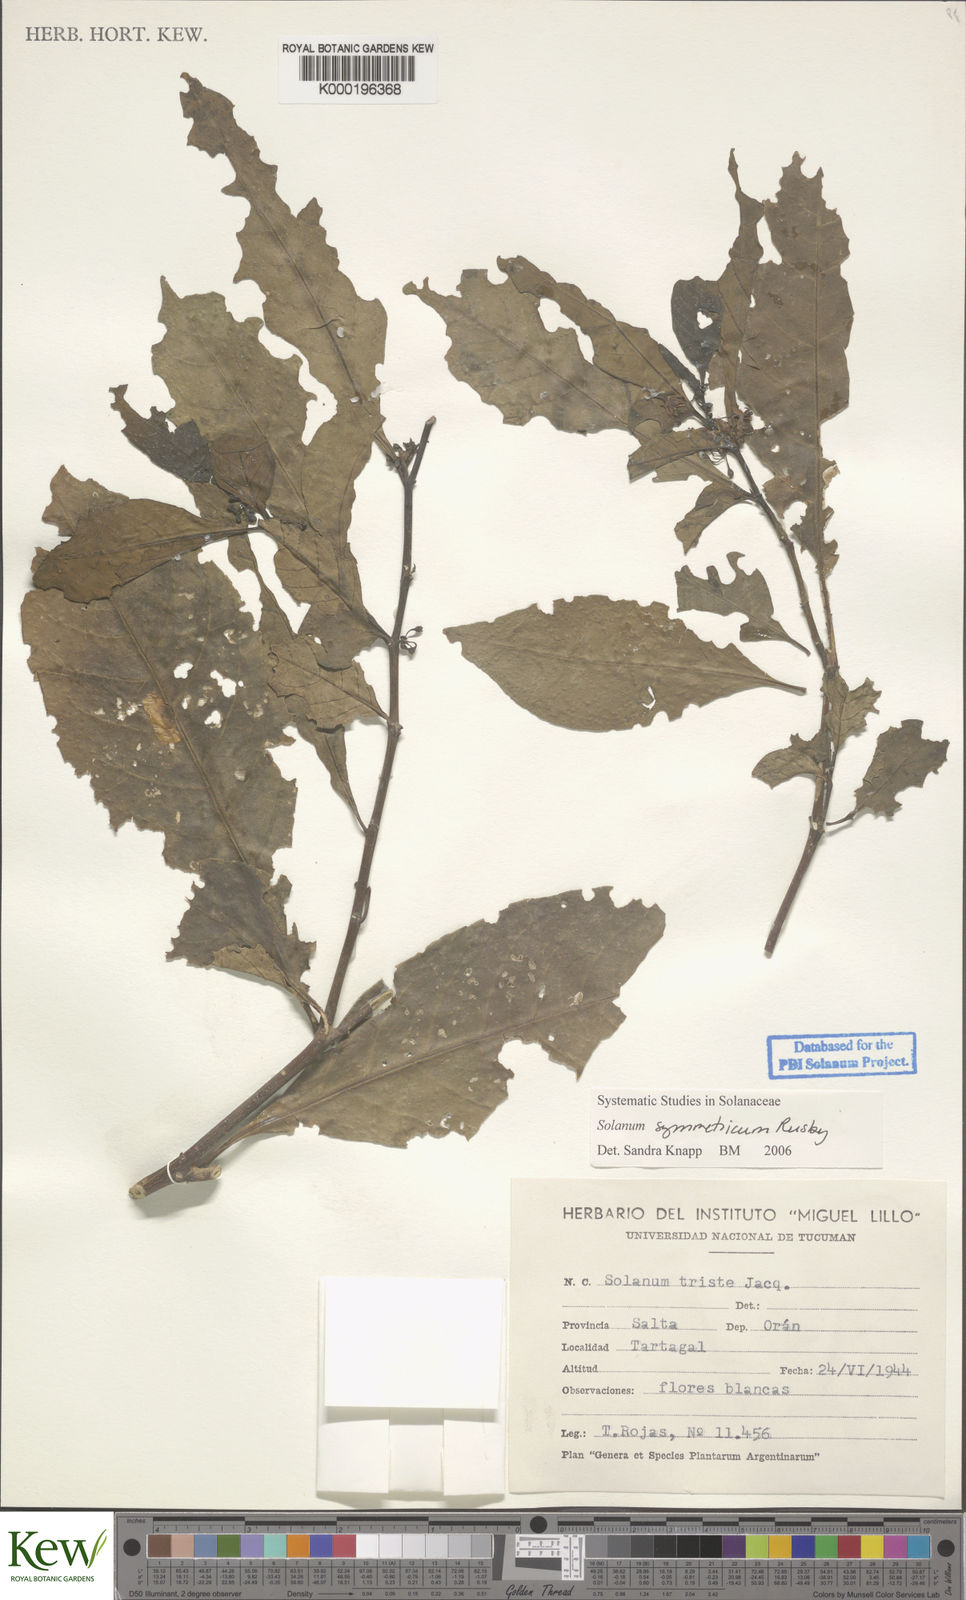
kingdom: Plantae
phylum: Tracheophyta
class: Magnoliopsida
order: Solanales
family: Solanaceae
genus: Solanum
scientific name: Solanum symmetricum
